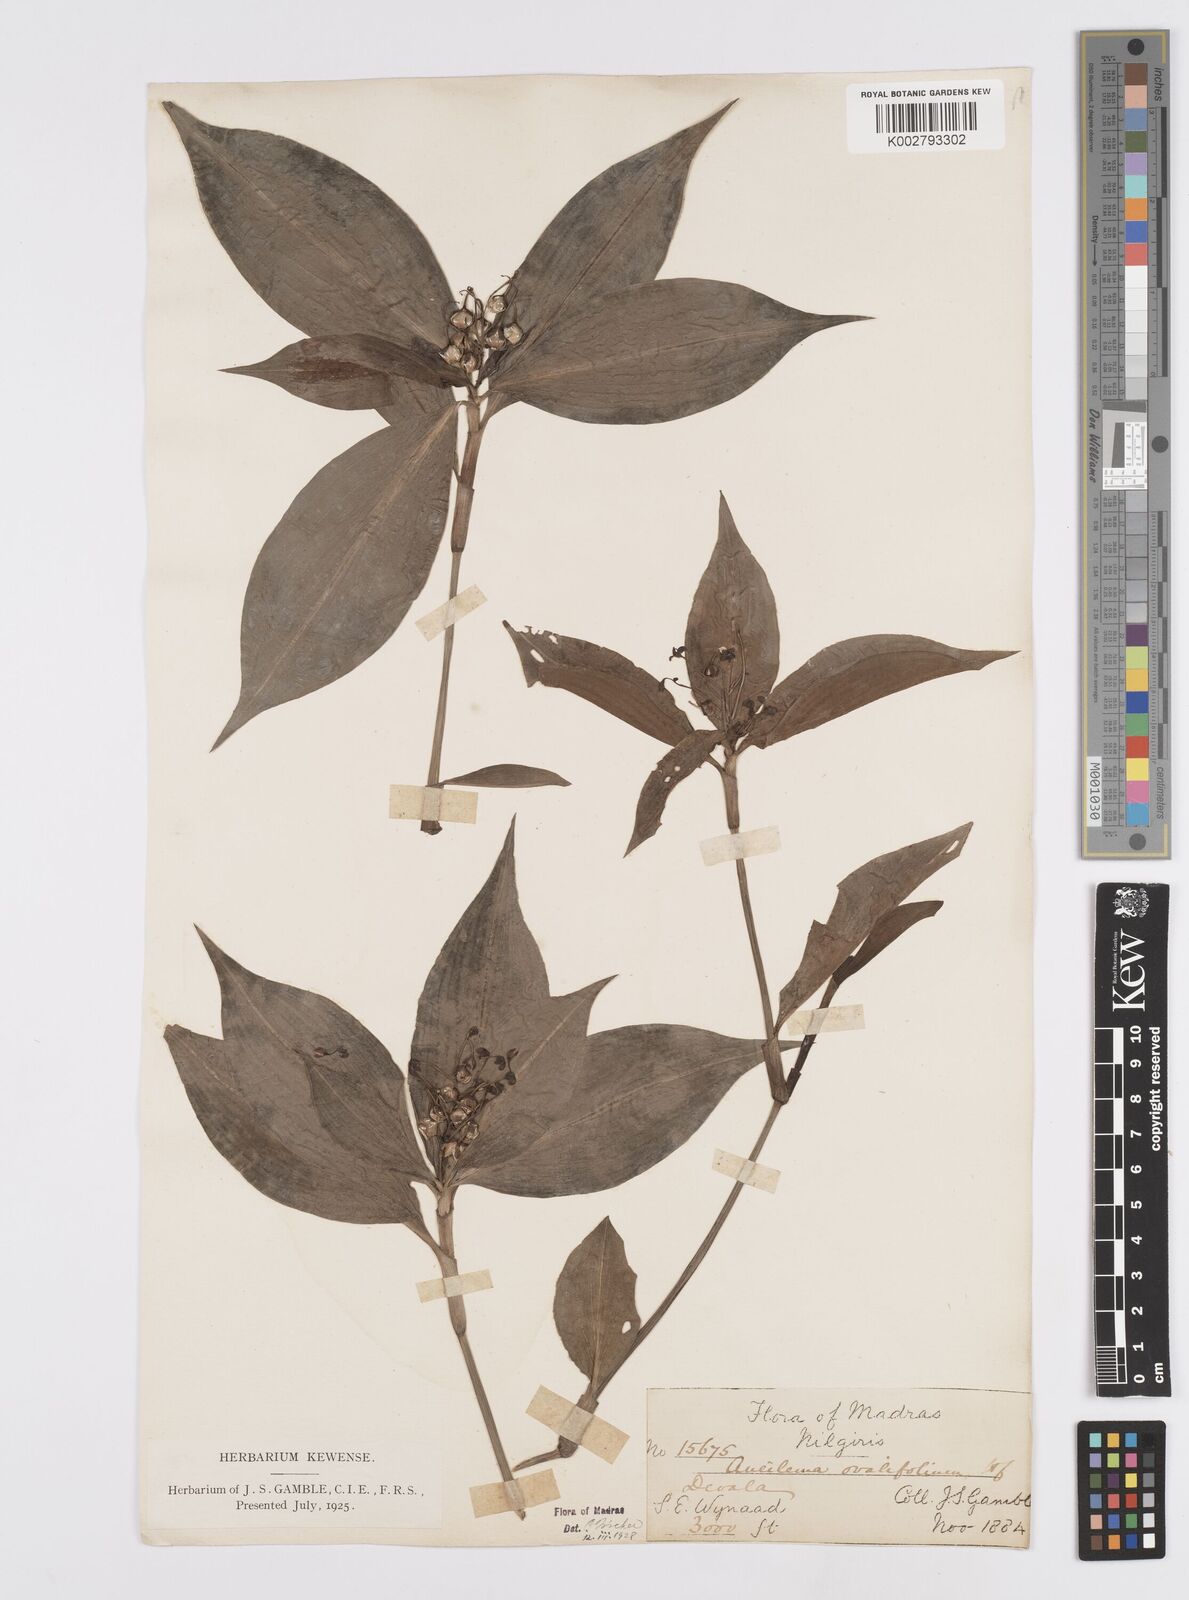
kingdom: Plantae
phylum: Tracheophyta
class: Liliopsida
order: Commelinales
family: Commelinaceae
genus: Murdannia
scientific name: Murdannia
